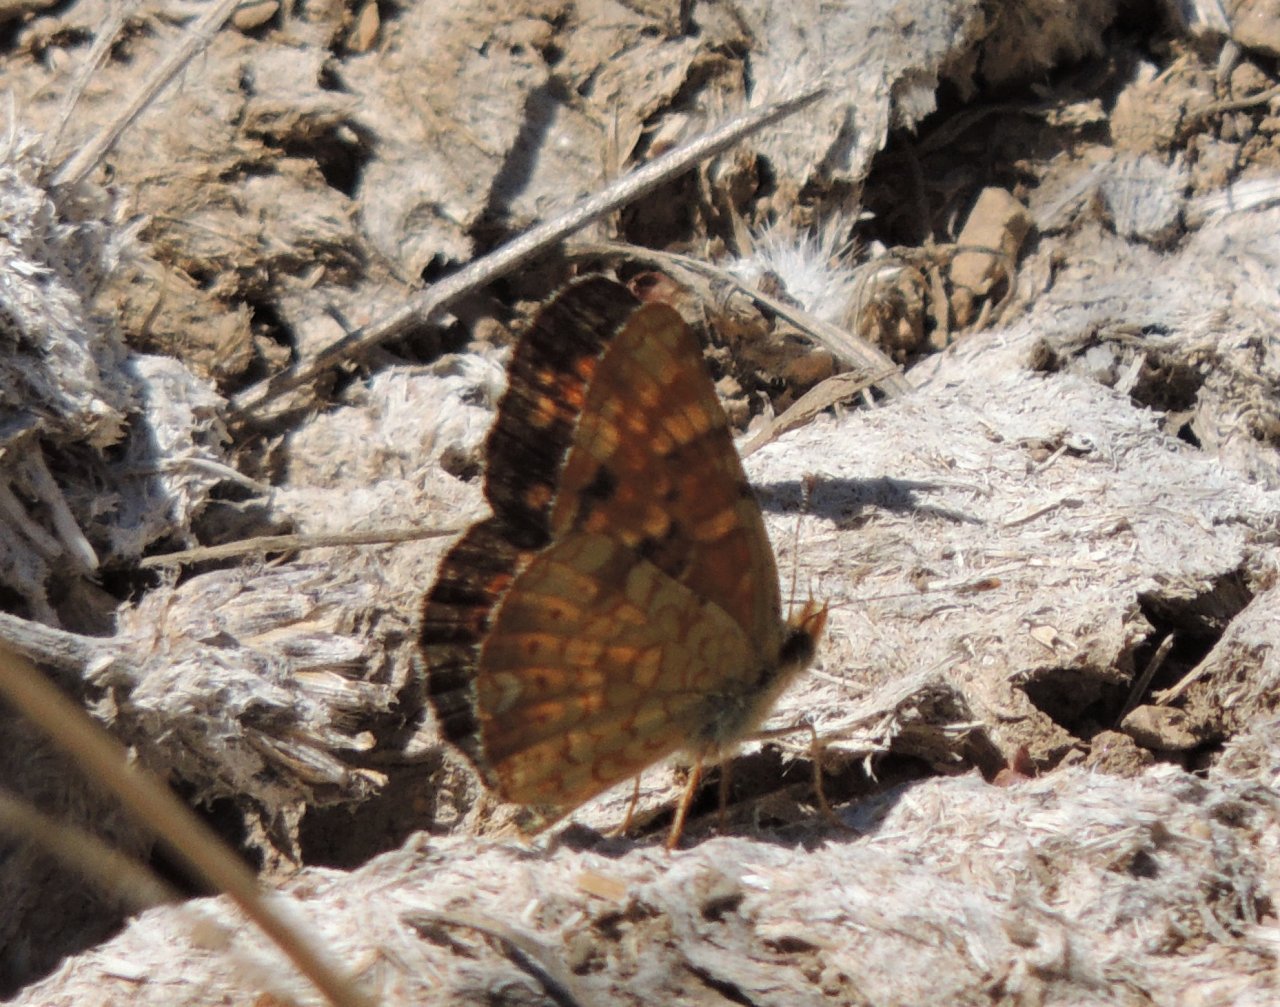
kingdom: Animalia
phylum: Arthropoda
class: Insecta
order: Lepidoptera
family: Nymphalidae
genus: Phyciodes
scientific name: Phyciodes tharos
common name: Field Crescent
